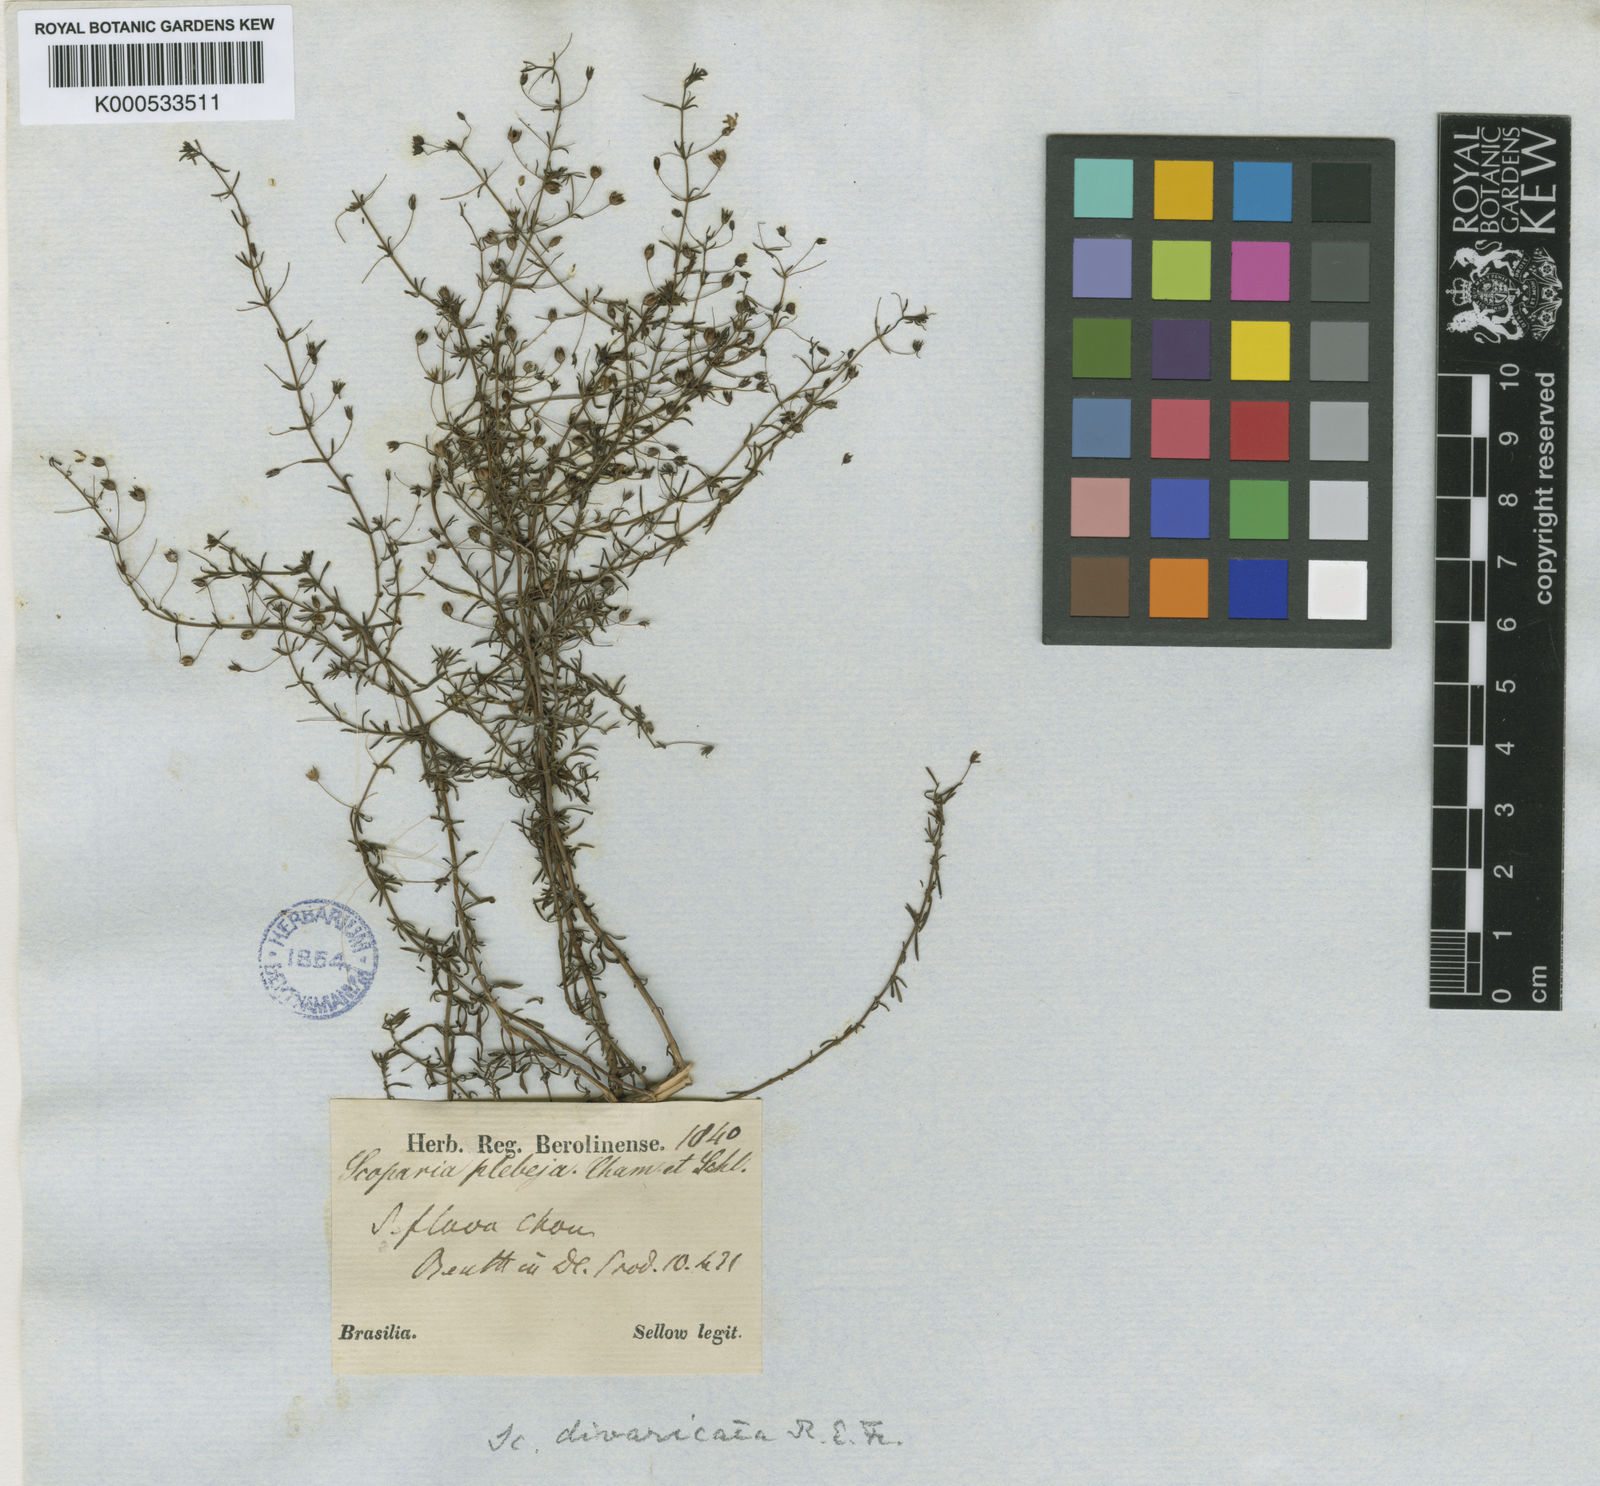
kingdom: Plantae
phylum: Tracheophyta
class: Magnoliopsida
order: Lamiales
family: Plantaginaceae
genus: Scoparia
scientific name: Scoparia ericacea
